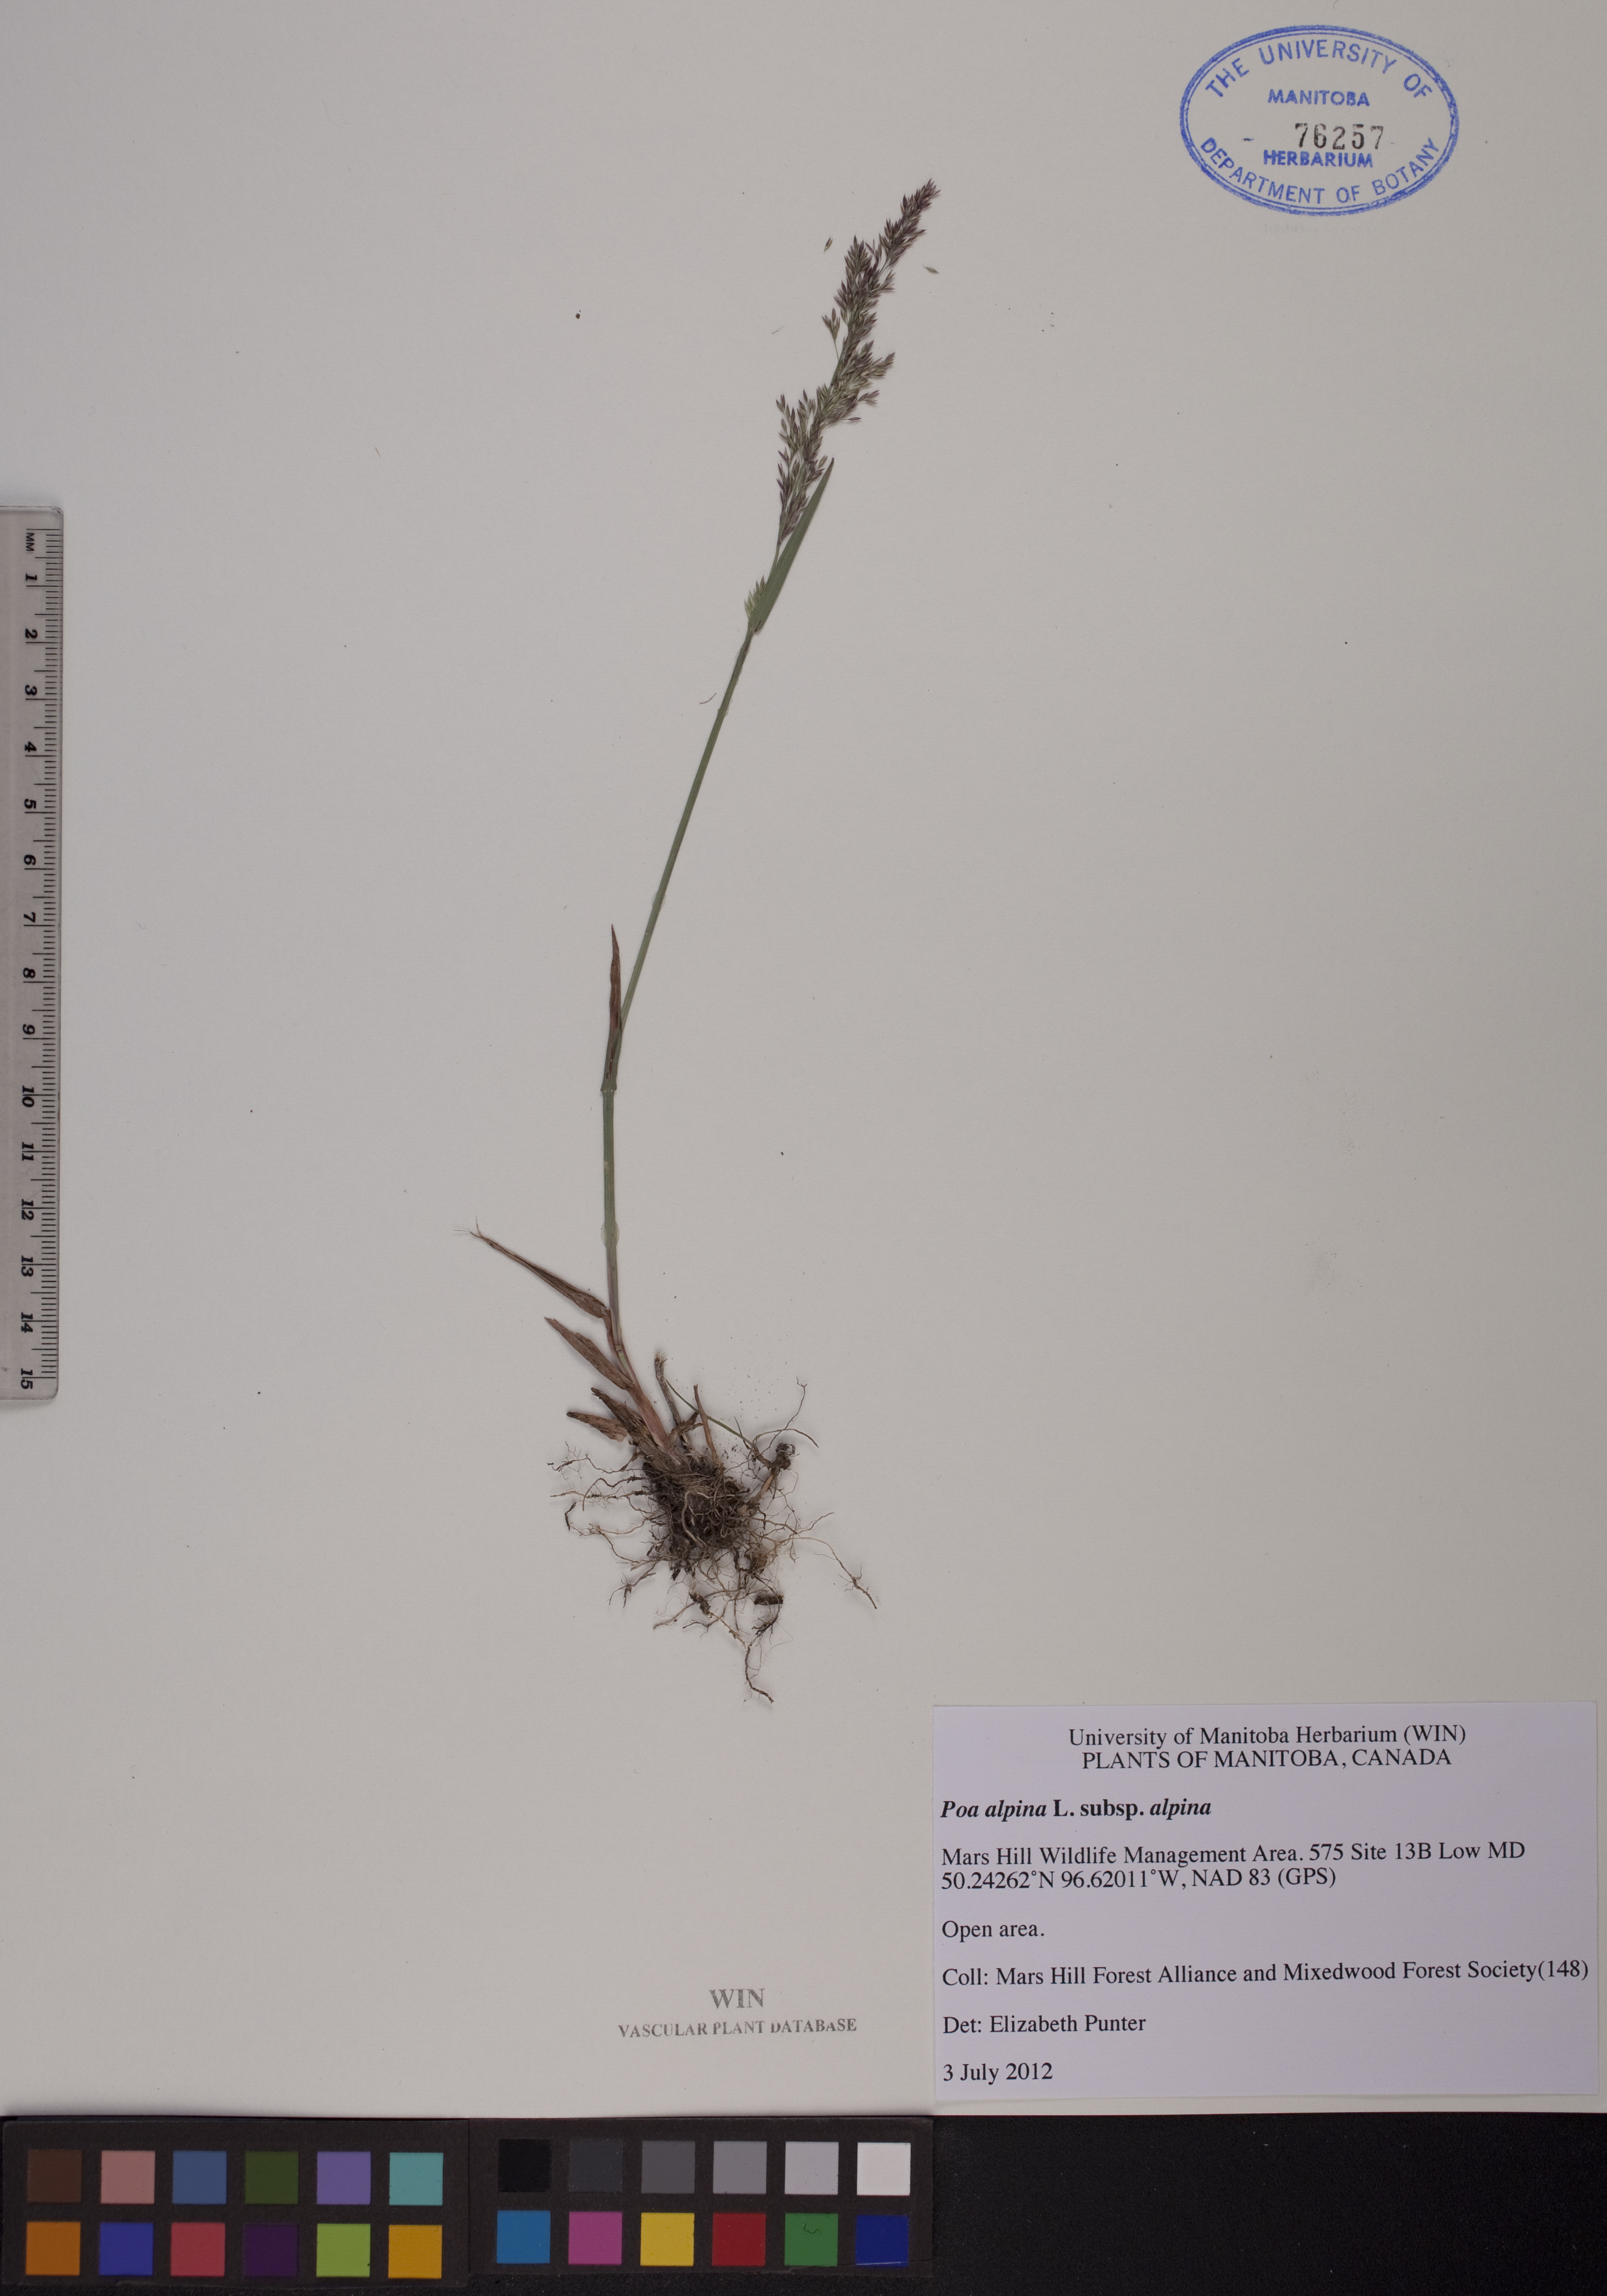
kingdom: Plantae
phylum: Tracheophyta
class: Liliopsida
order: Poales
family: Poaceae
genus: Poa
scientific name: Poa alpina
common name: Alpine bluegrass
